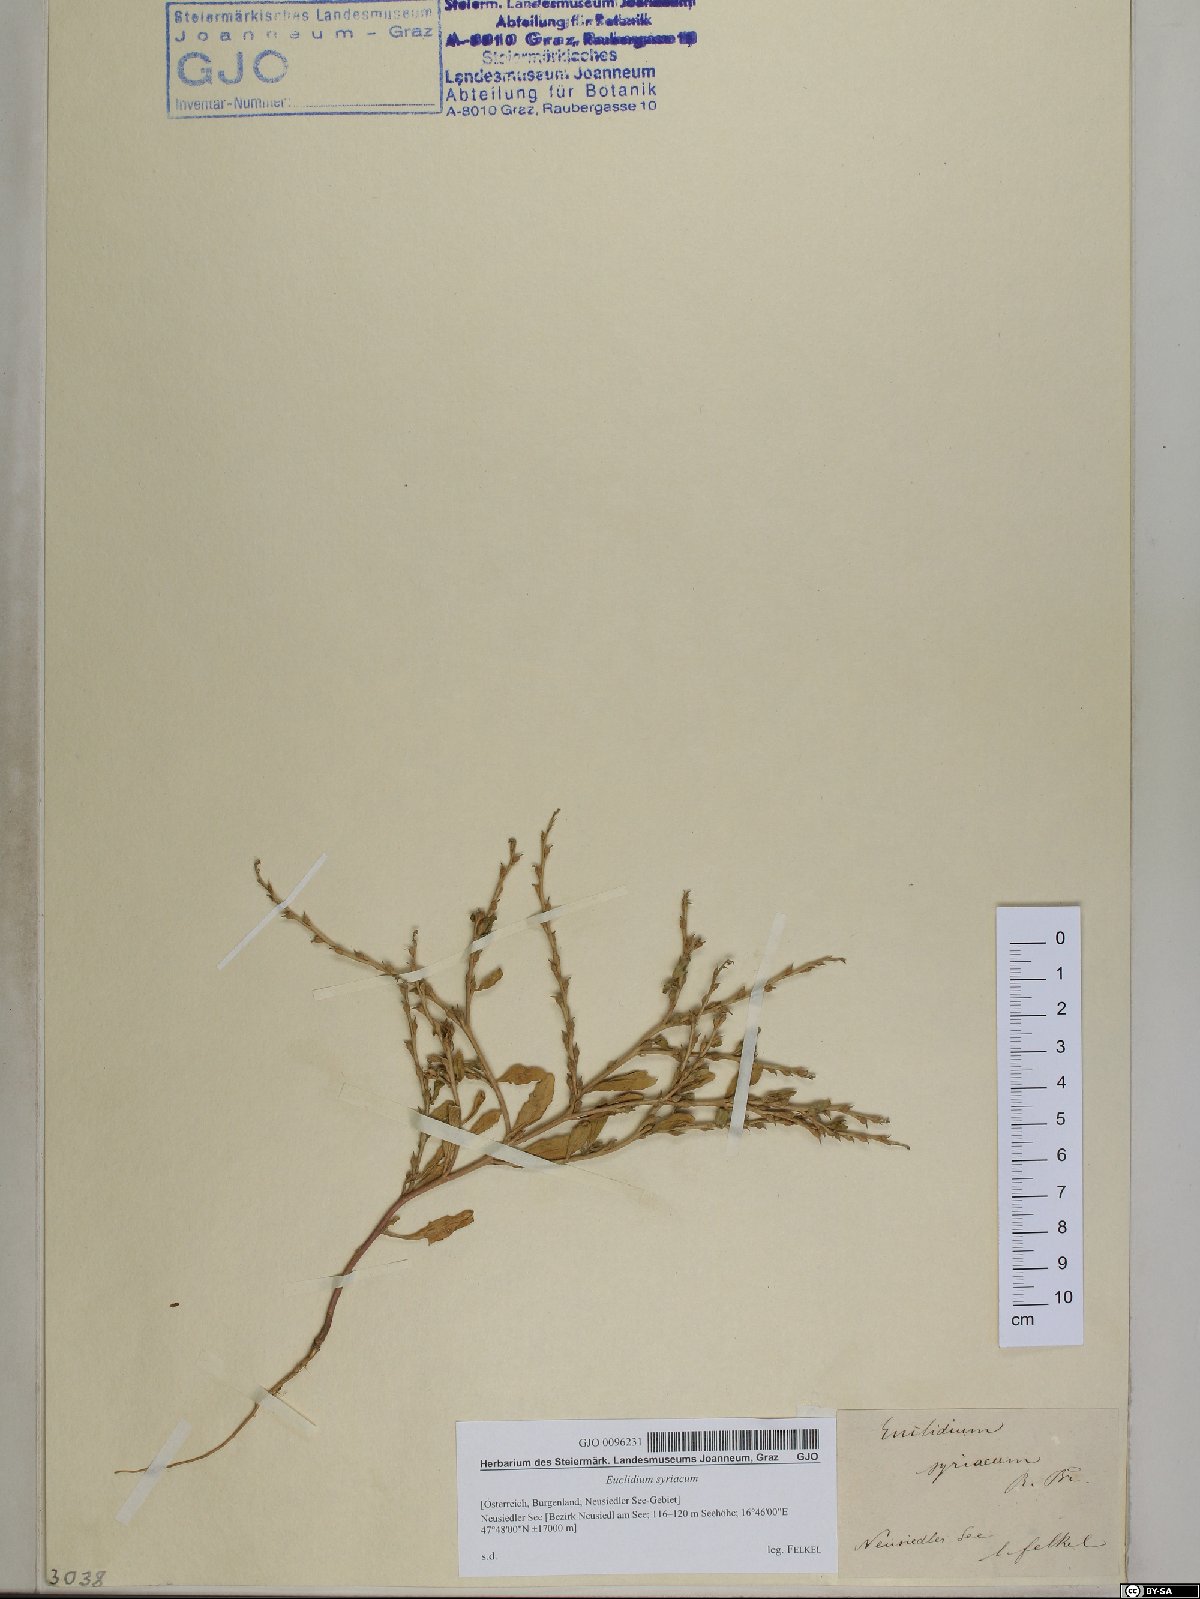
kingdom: Plantae
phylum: Tracheophyta
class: Magnoliopsida
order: Brassicales
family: Brassicaceae
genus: Euclidium
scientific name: Euclidium syriacum
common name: Syrian mustard
